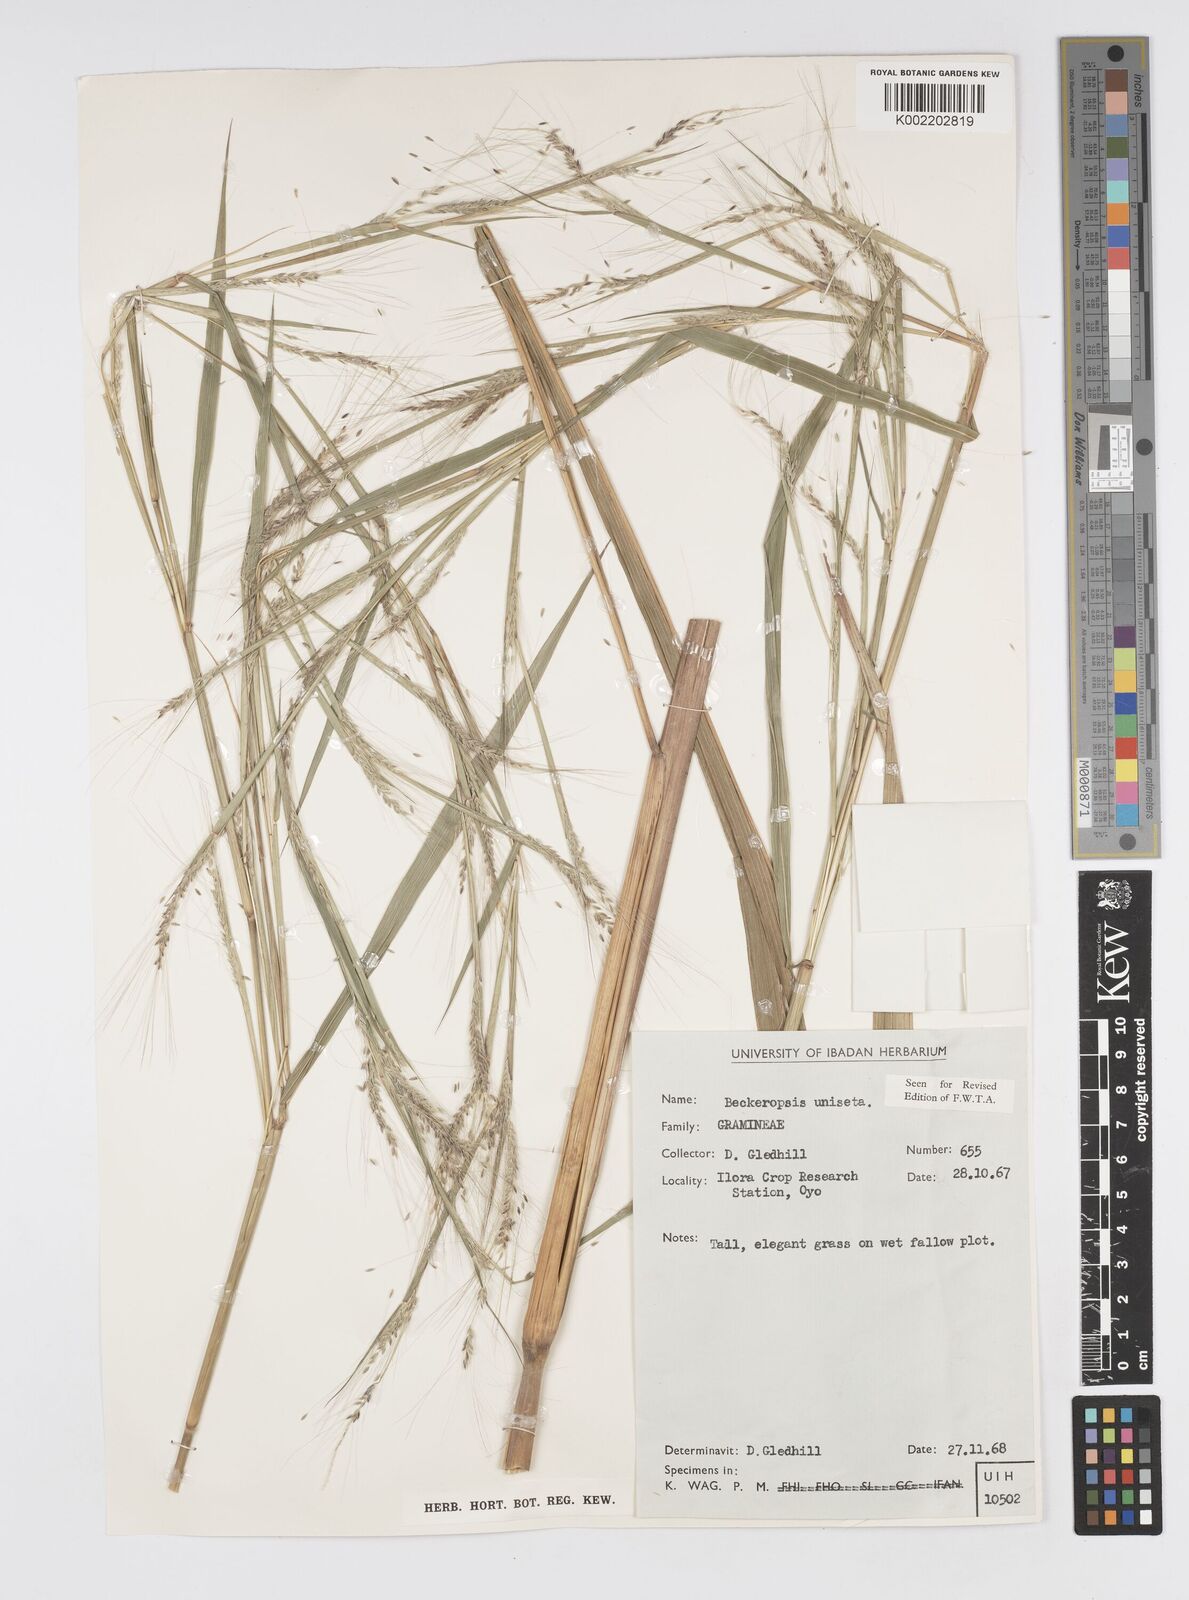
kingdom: Plantae
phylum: Tracheophyta
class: Liliopsida
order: Poales
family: Poaceae
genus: Cenchrus
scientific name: Cenchrus unisetus
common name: Natal grass
